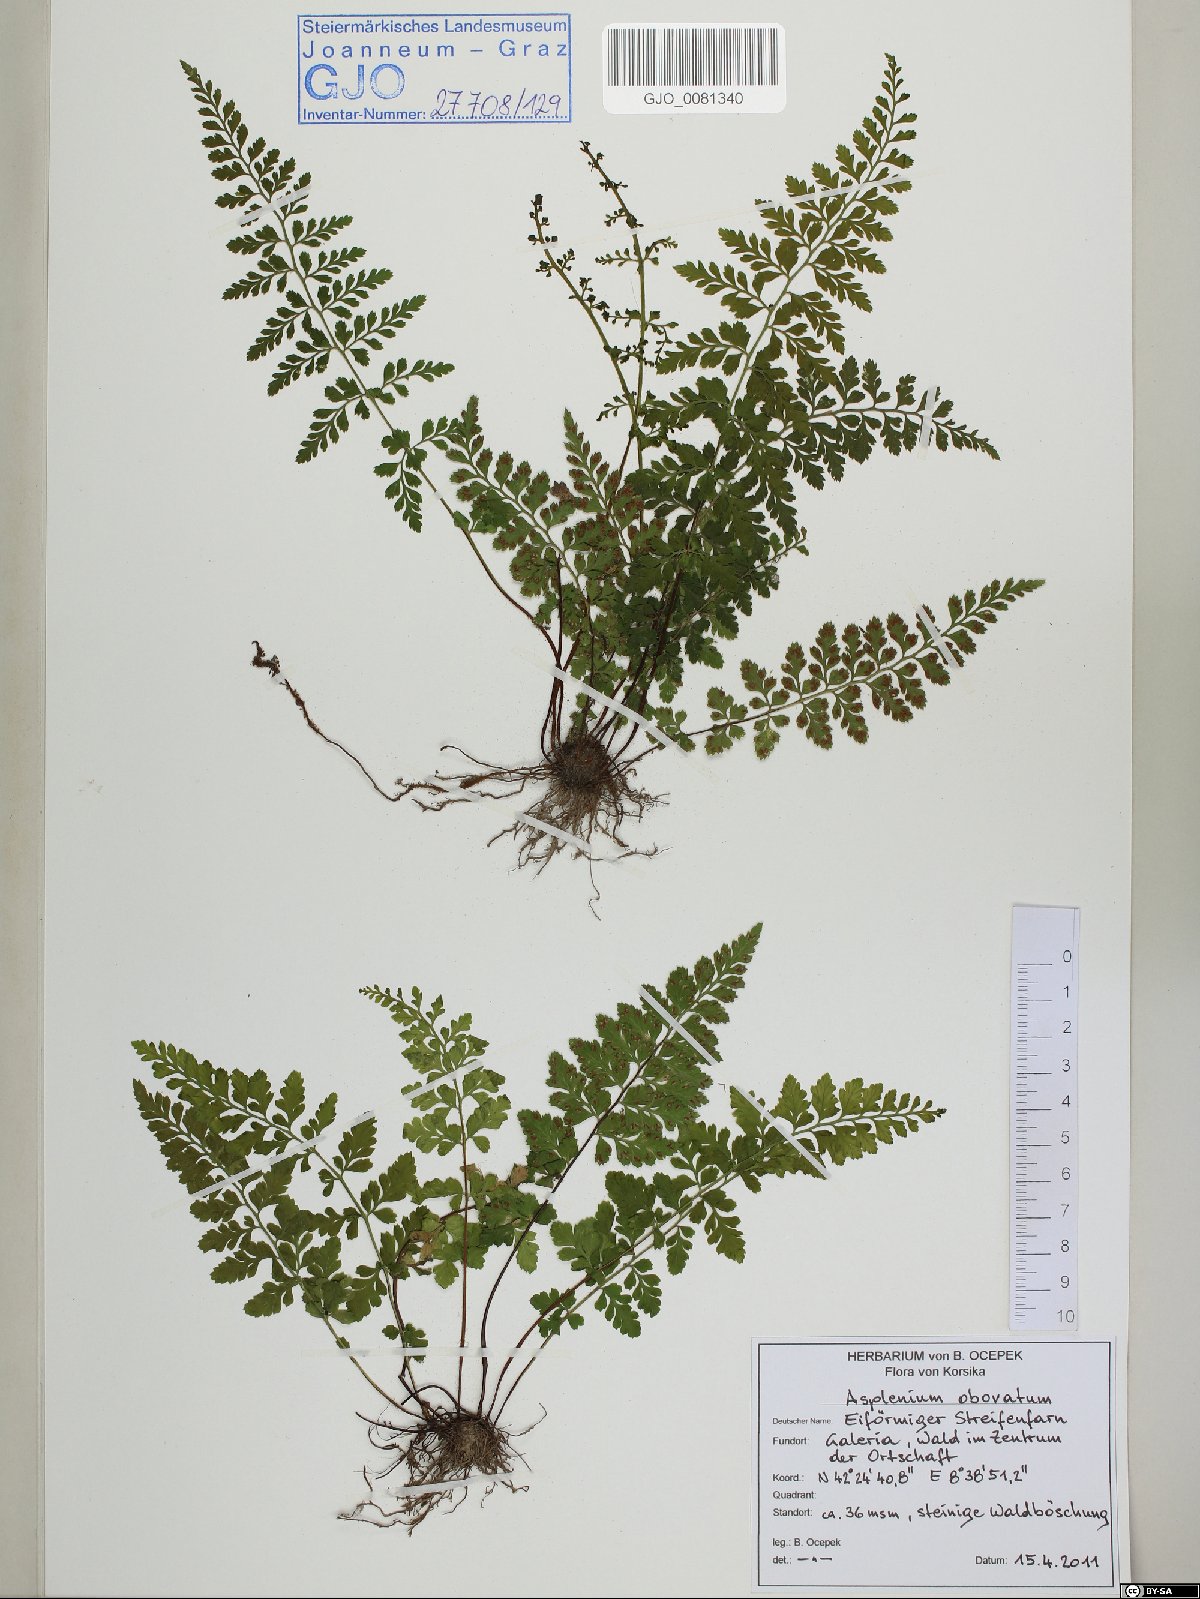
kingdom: Plantae
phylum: Tracheophyta
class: Polypodiopsida
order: Polypodiales
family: Aspleniaceae
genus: Asplenium
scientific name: Asplenium obovatum
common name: Lanceolate spleenwort
